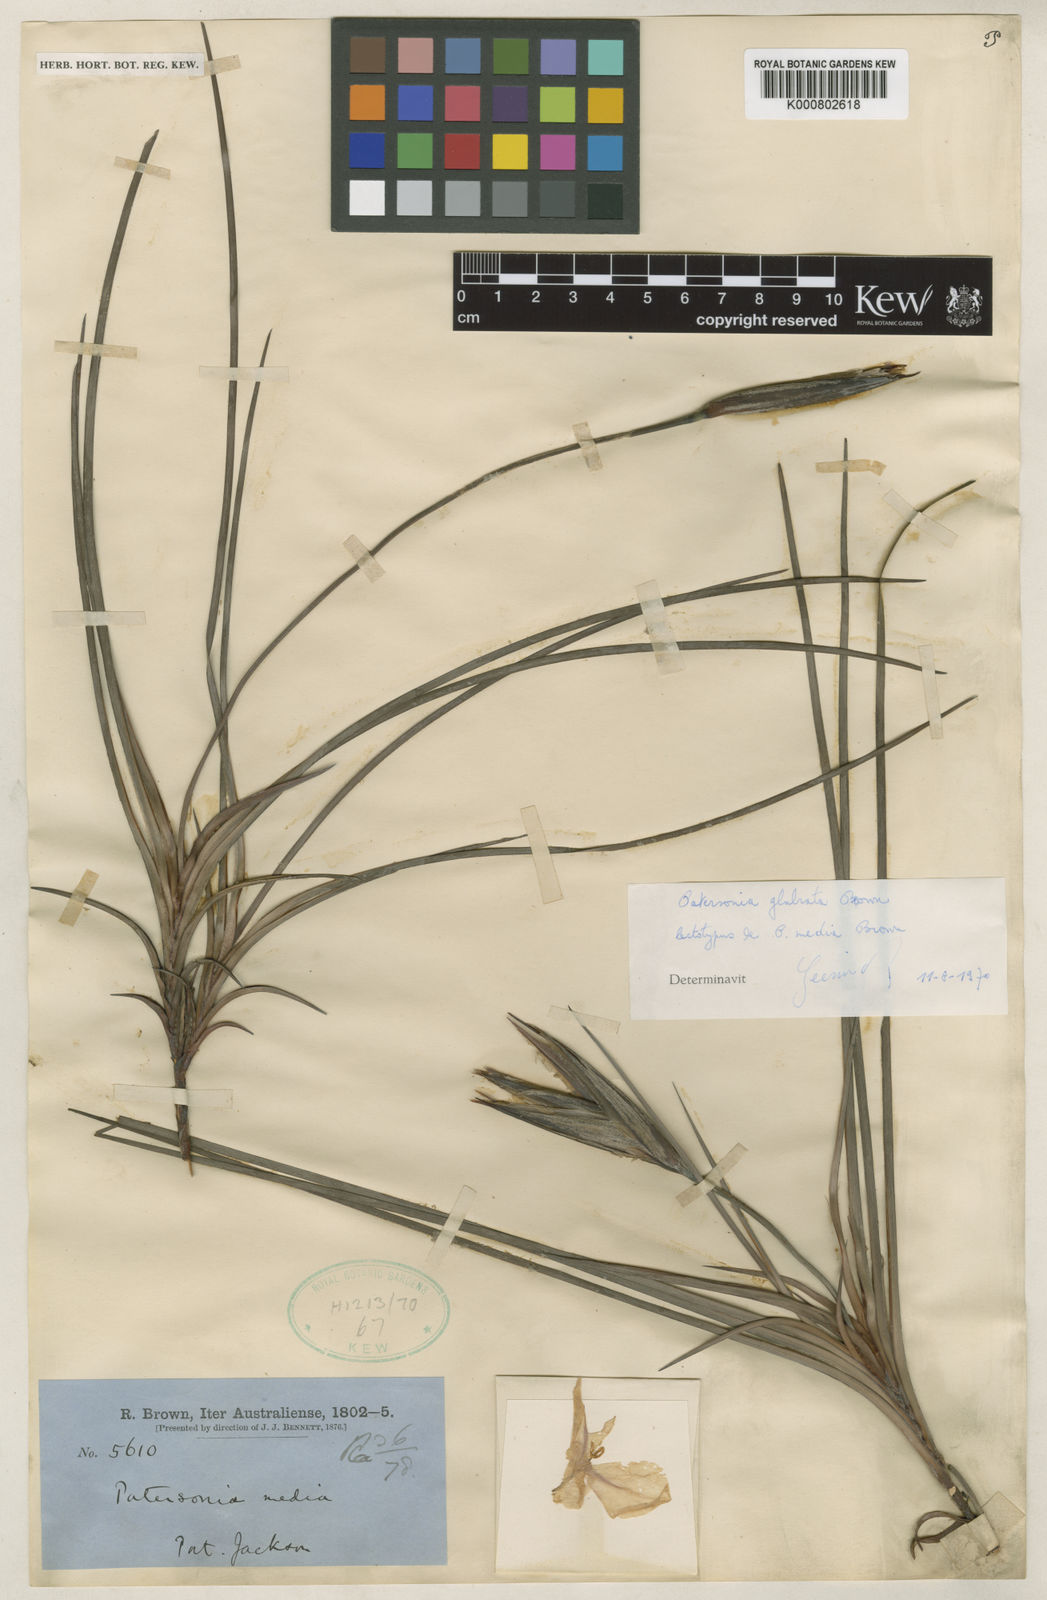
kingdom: Plantae
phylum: Tracheophyta
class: Liliopsida
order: Asparagales
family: Iridaceae
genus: Patersonia
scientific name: Patersonia glabrata
